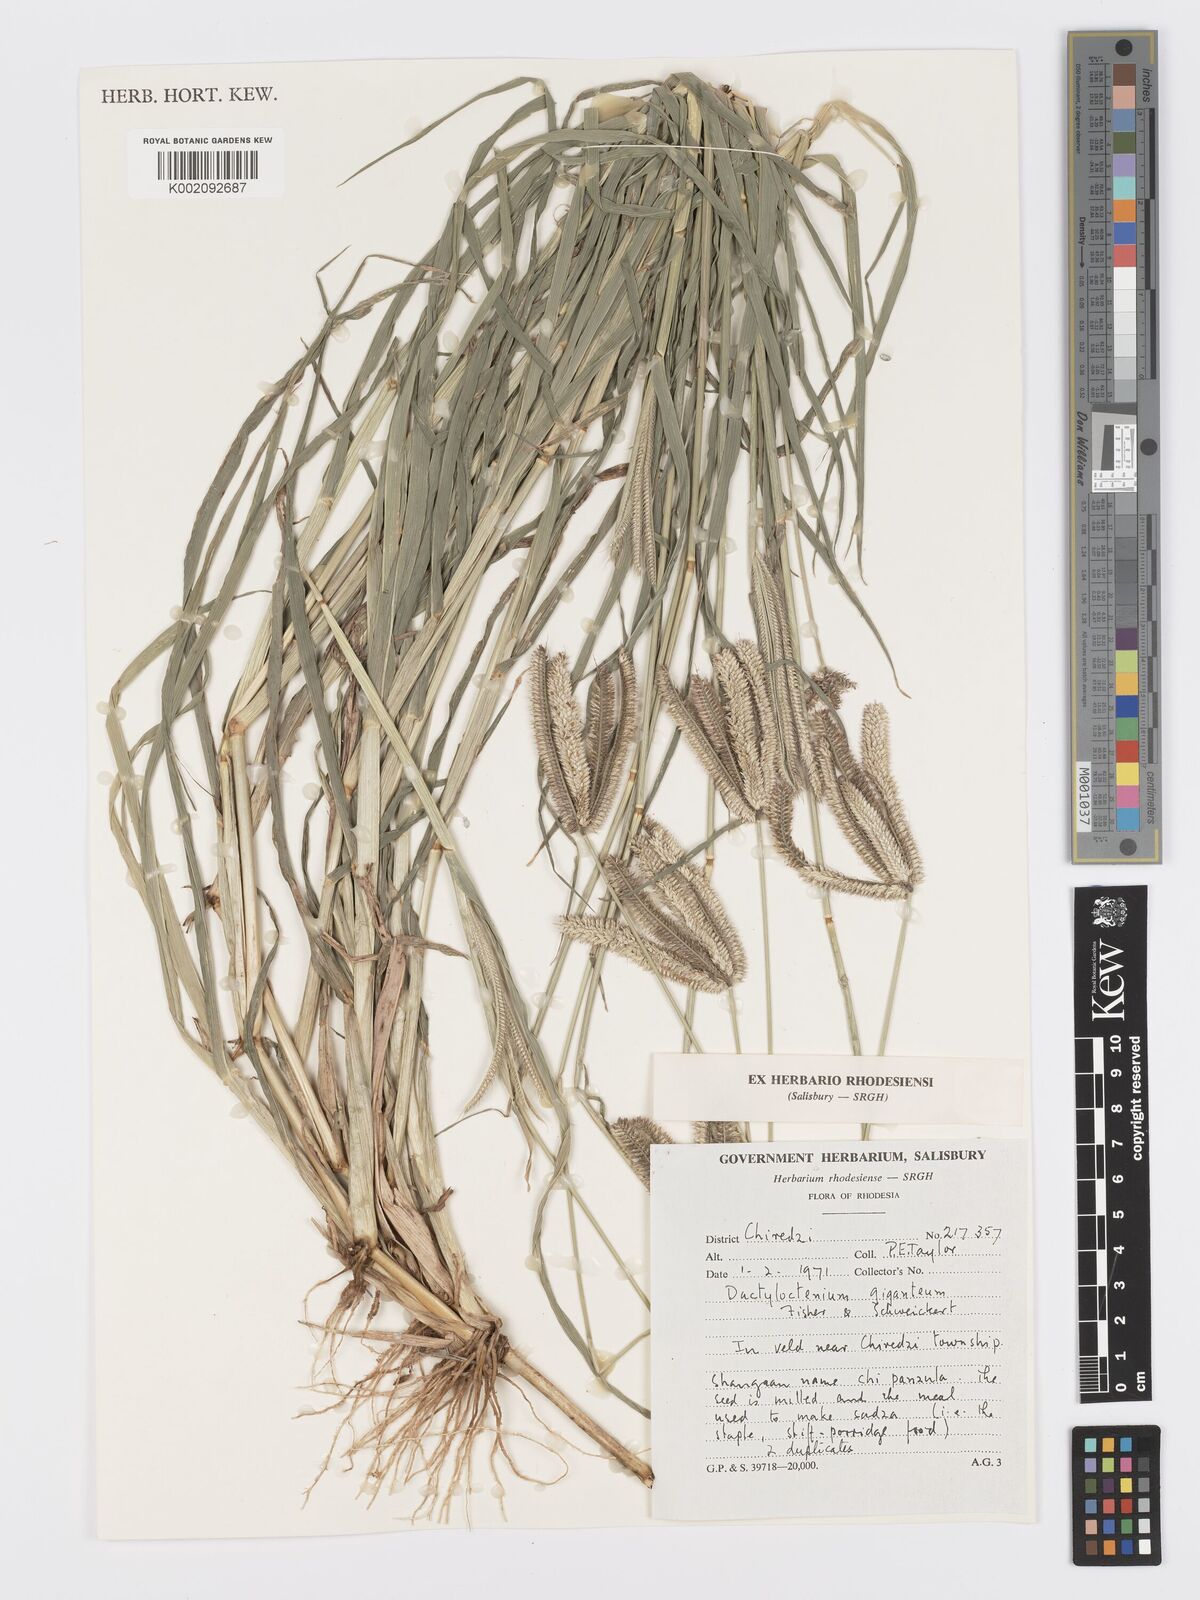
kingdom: Plantae
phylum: Tracheophyta
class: Liliopsida
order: Poales
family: Poaceae
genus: Dactyloctenium
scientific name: Dactyloctenium giganteum
